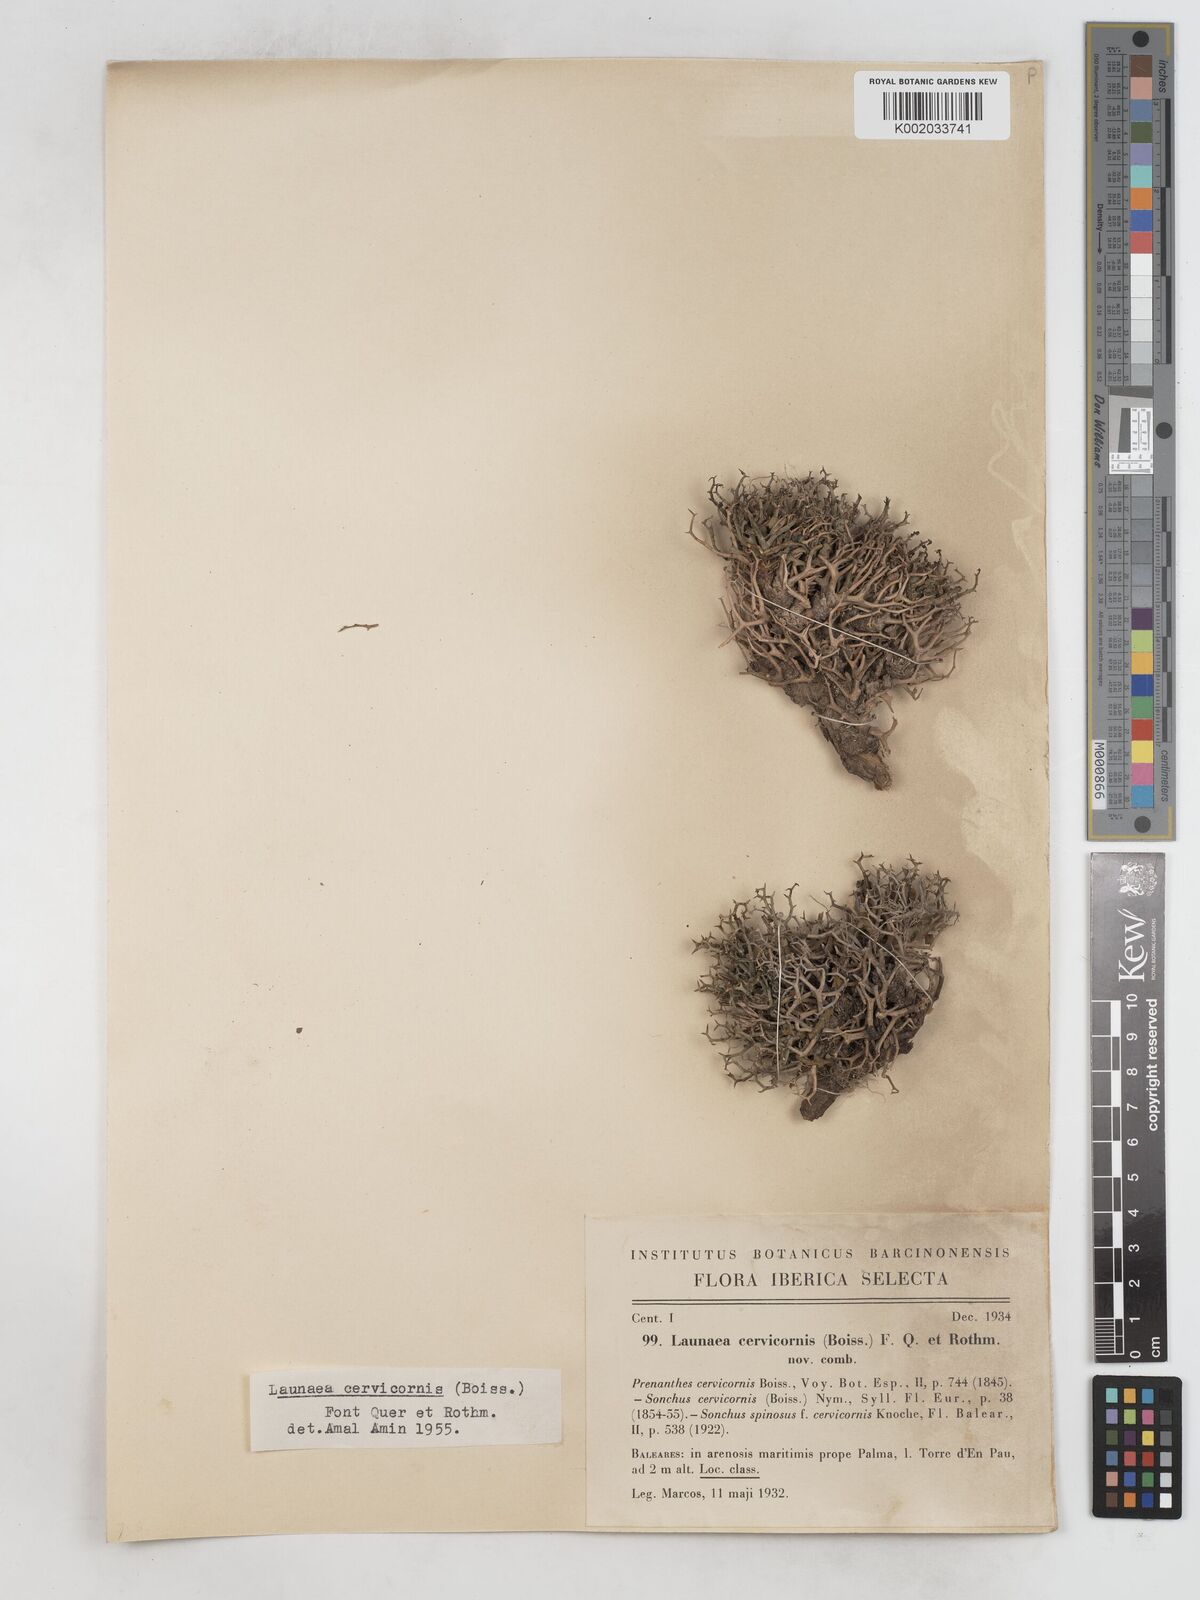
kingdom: Plantae
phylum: Tracheophyta
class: Magnoliopsida
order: Asterales
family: Asteraceae
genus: Launaea
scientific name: Launaea cervicornis
